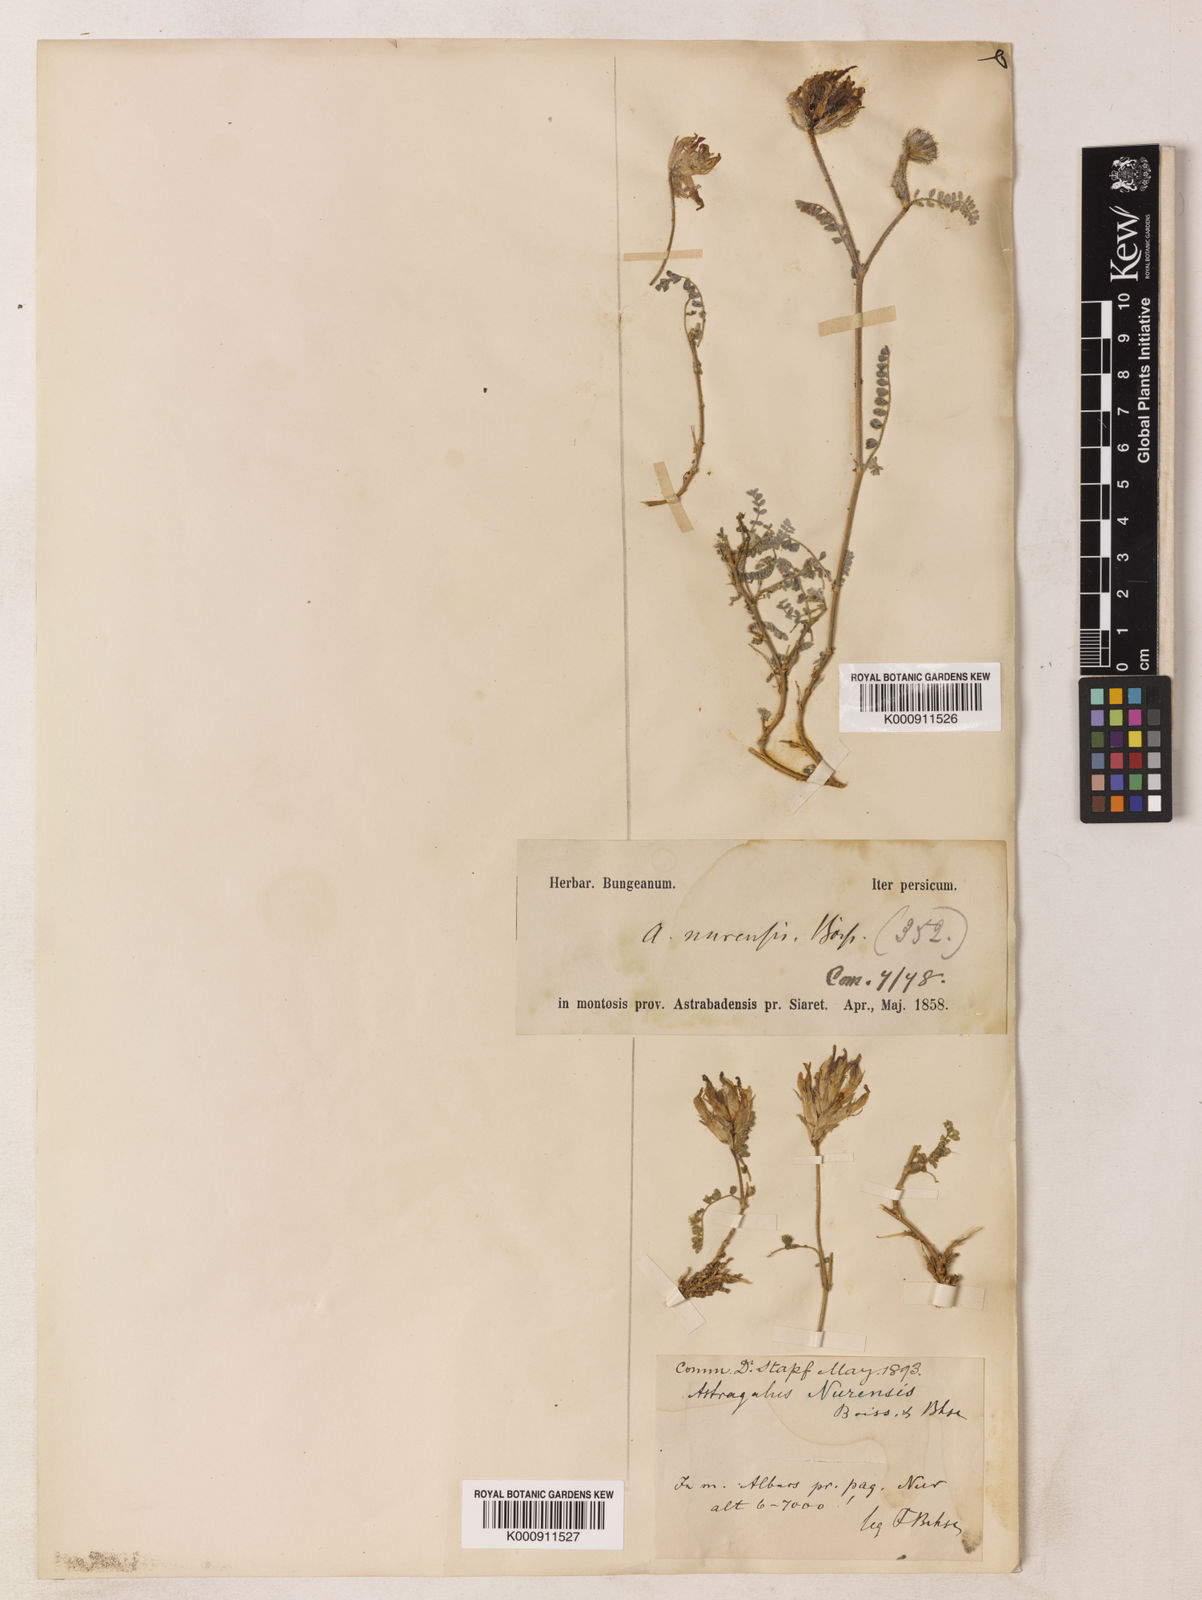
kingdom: Plantae
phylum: Tracheophyta
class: Magnoliopsida
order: Fabales
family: Fabaceae
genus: Astragalus
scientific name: Astragalus nurensis
